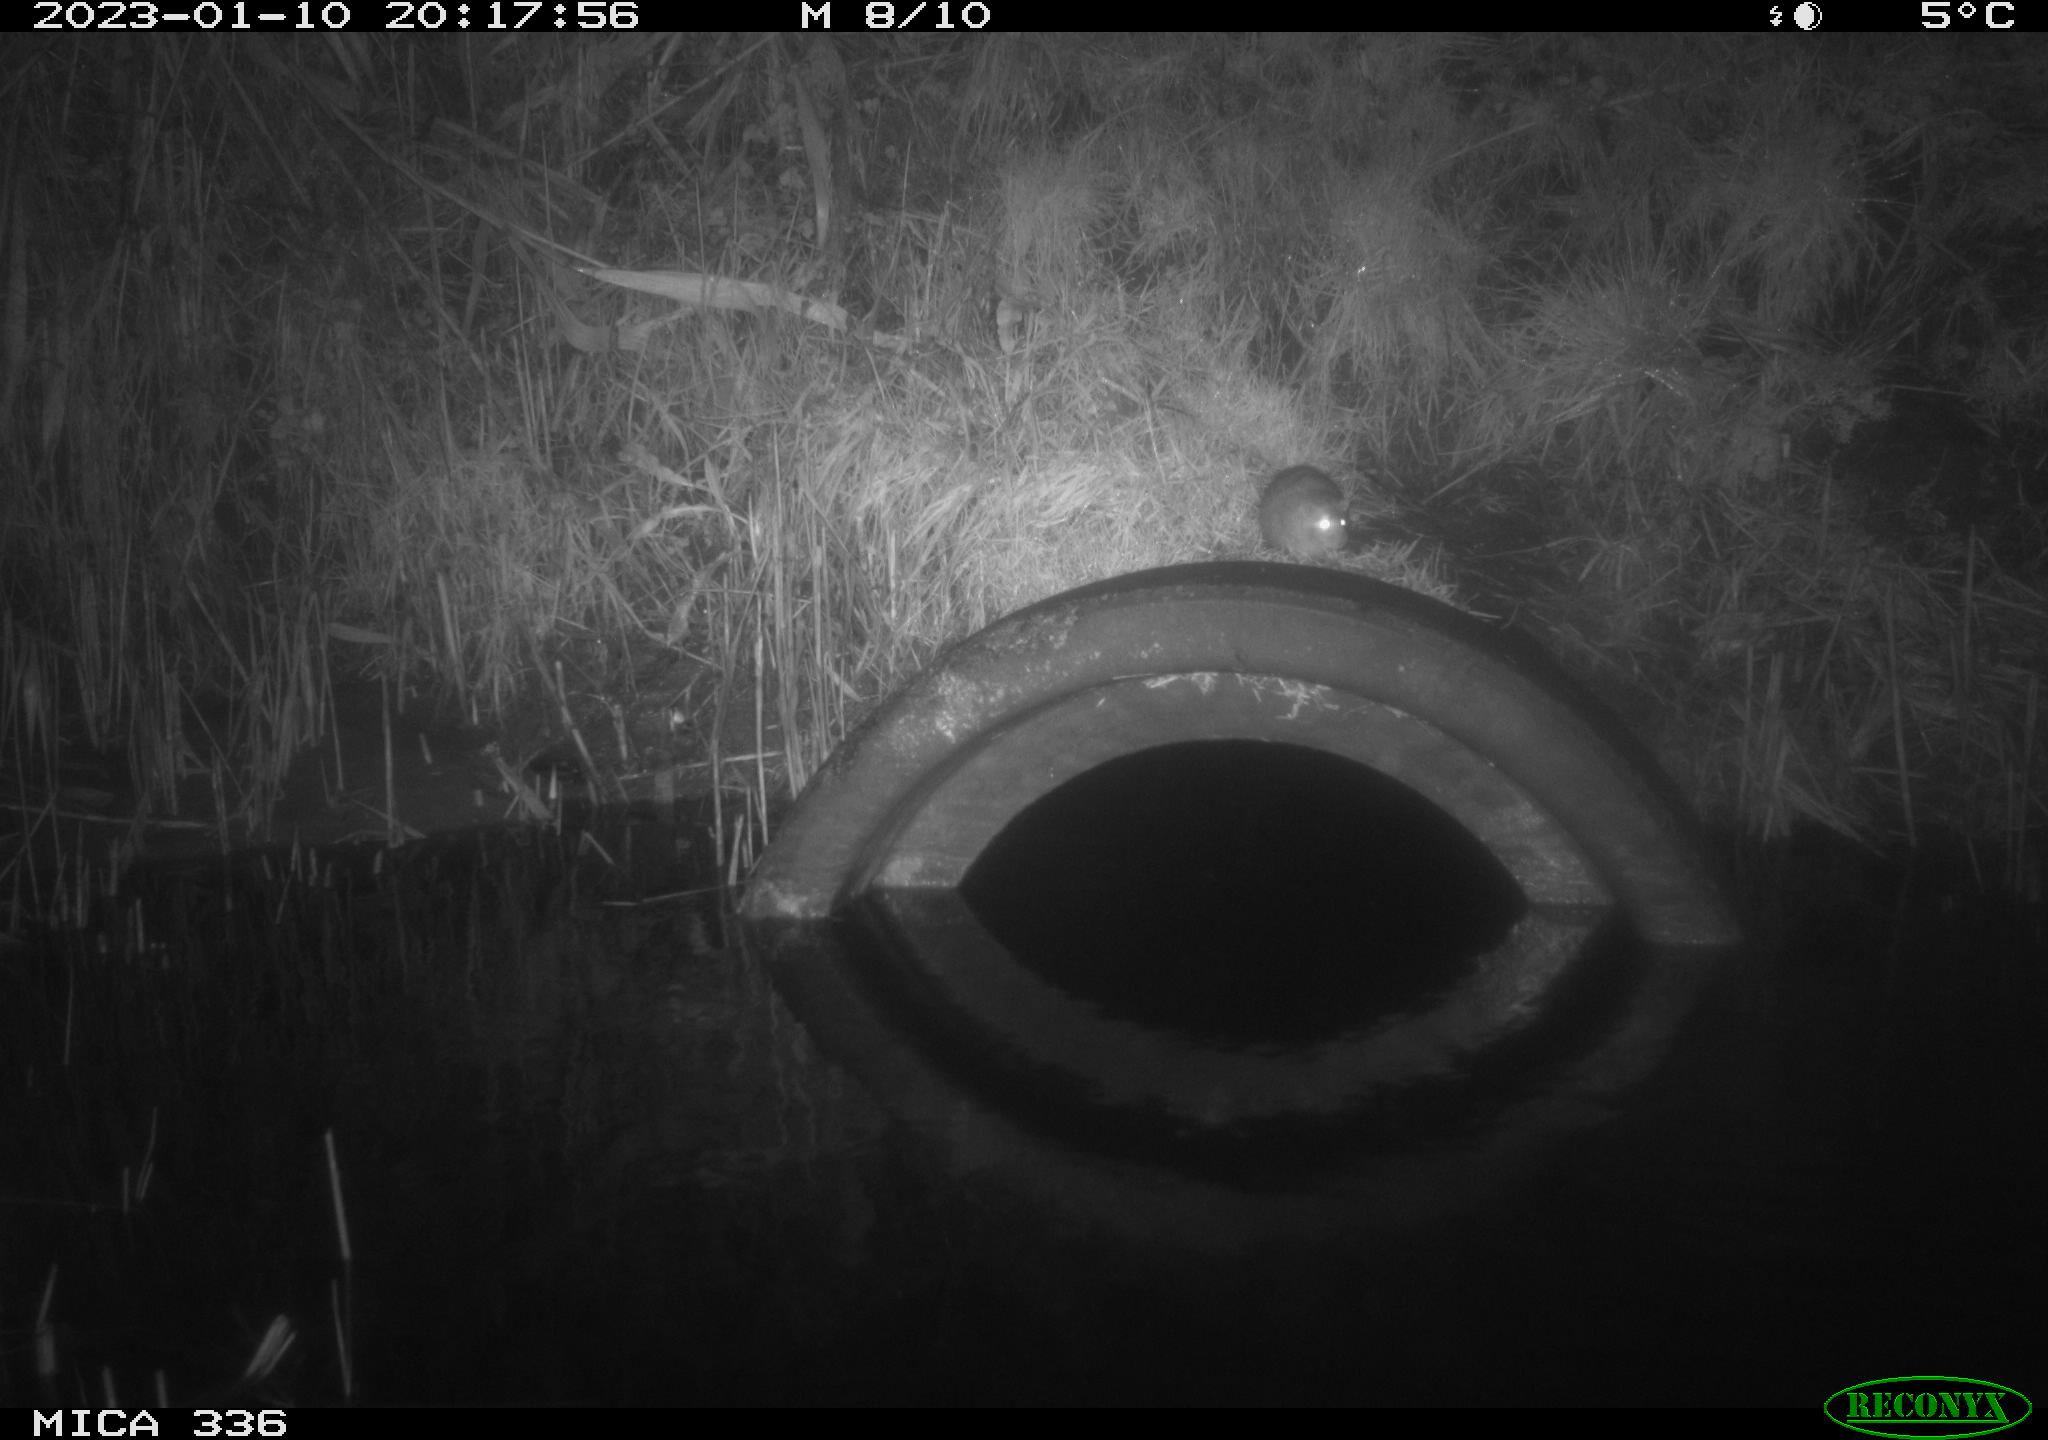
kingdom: Animalia
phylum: Chordata
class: Mammalia
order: Rodentia
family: Muridae
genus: Rattus
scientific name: Rattus norvegicus
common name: Brown rat
